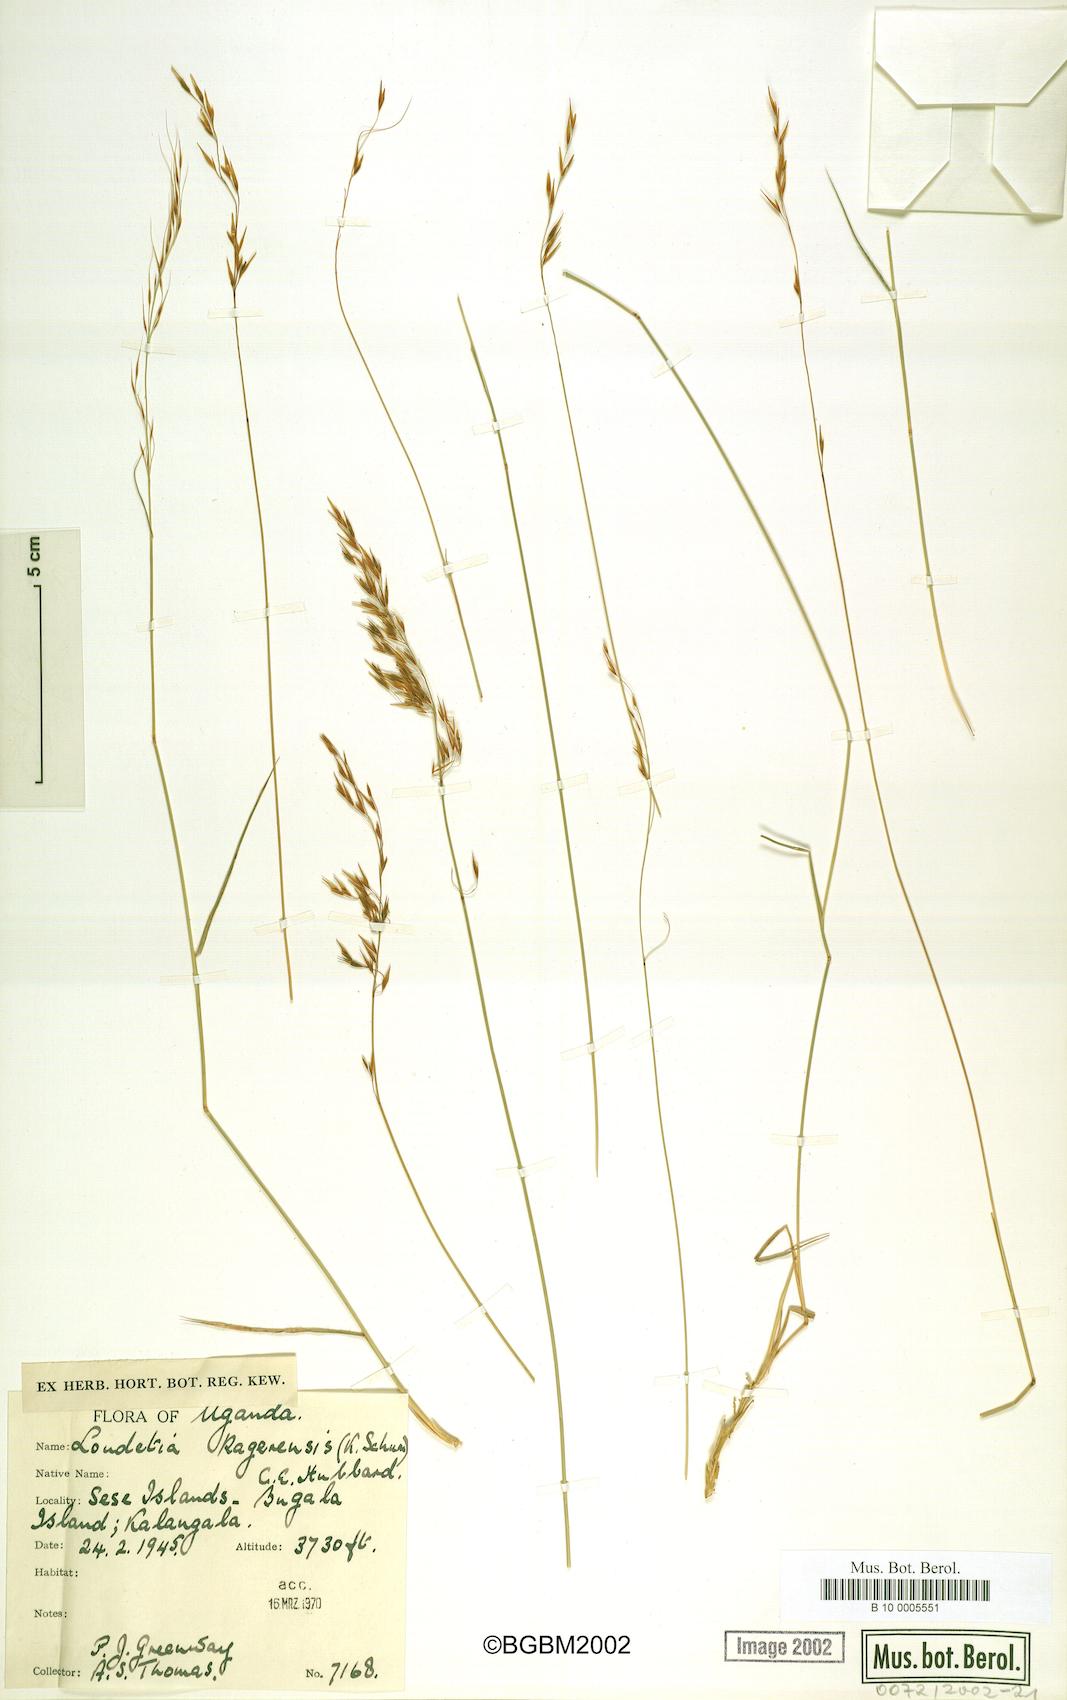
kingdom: Plantae
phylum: Tracheophyta
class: Liliopsida
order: Poales
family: Poaceae
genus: Loudetia
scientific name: Loudetia kagerensis
